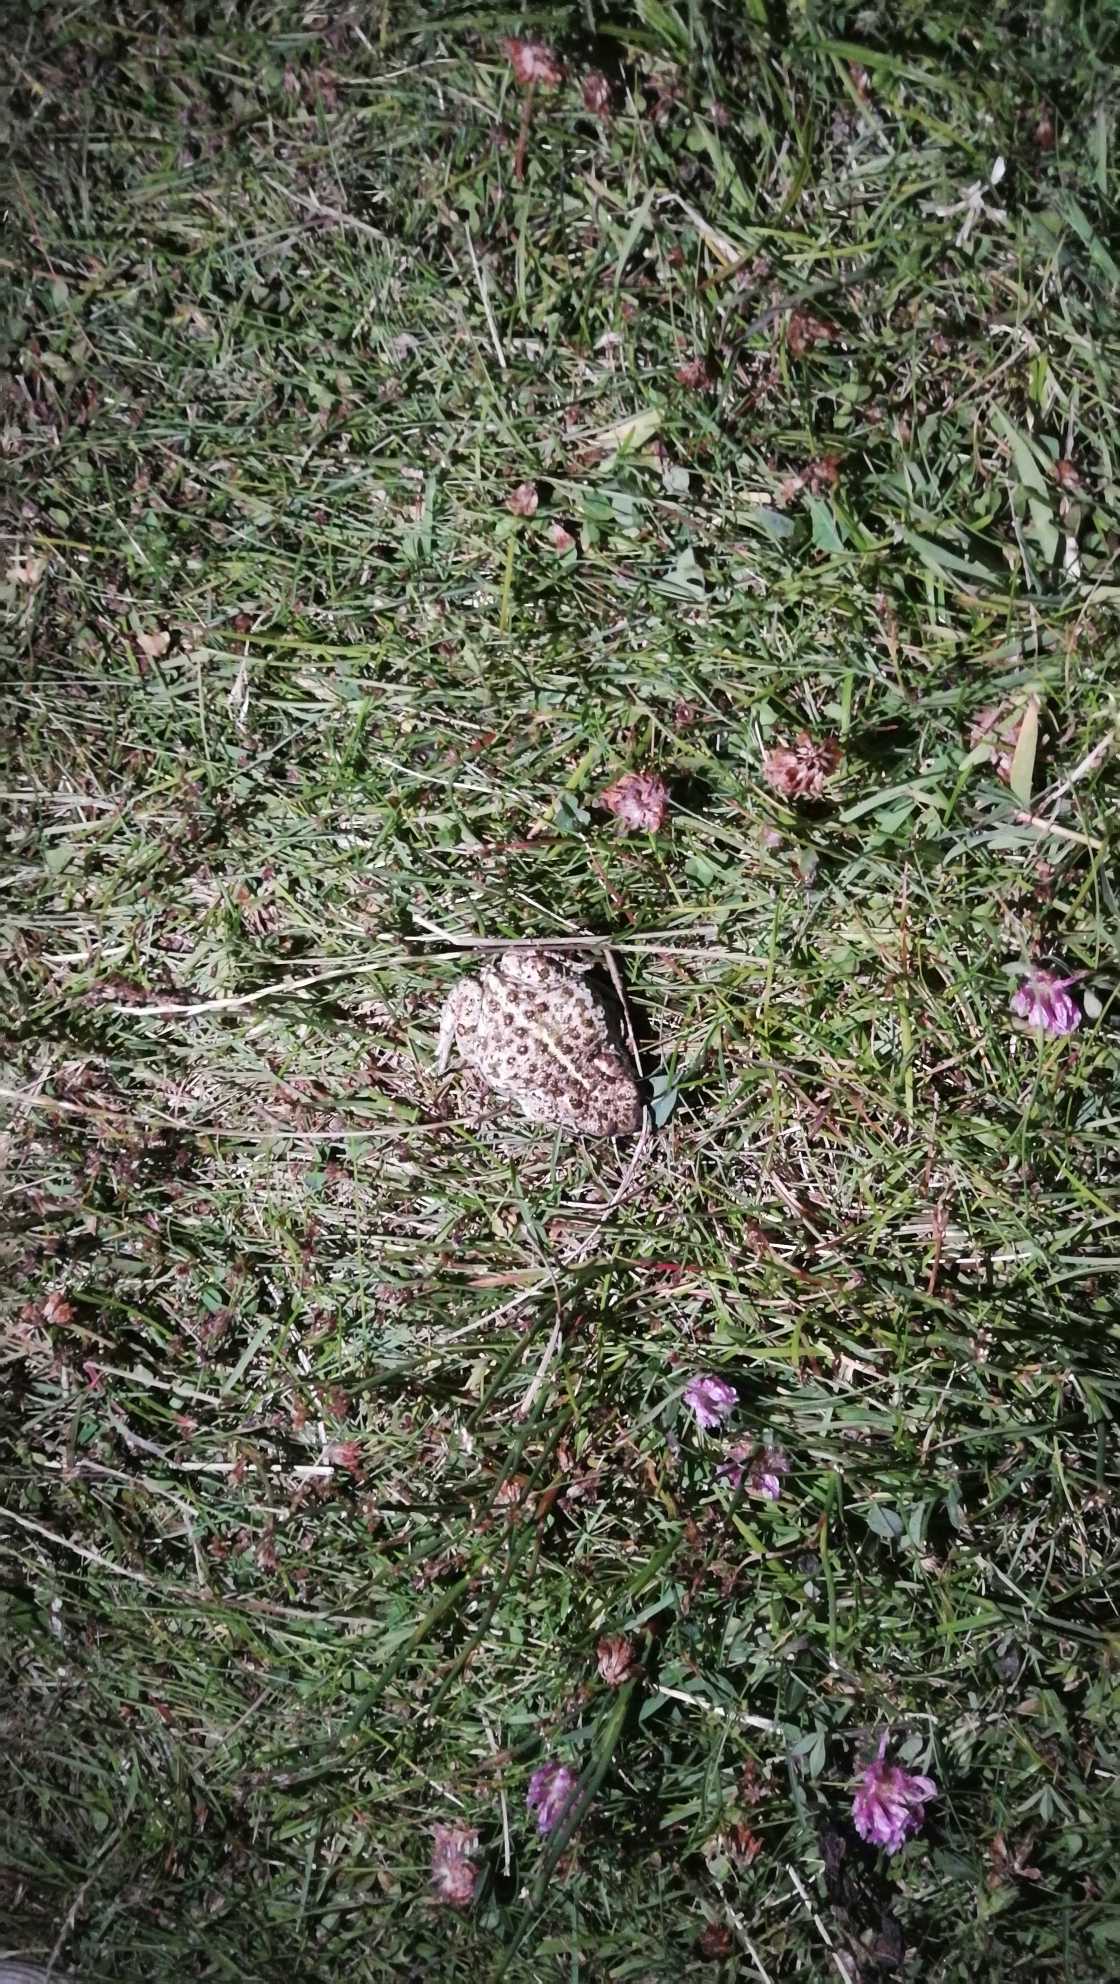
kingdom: Animalia
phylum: Chordata
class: Amphibia
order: Anura
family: Bufonidae
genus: Epidalea
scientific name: Epidalea calamita
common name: Strandtudse
